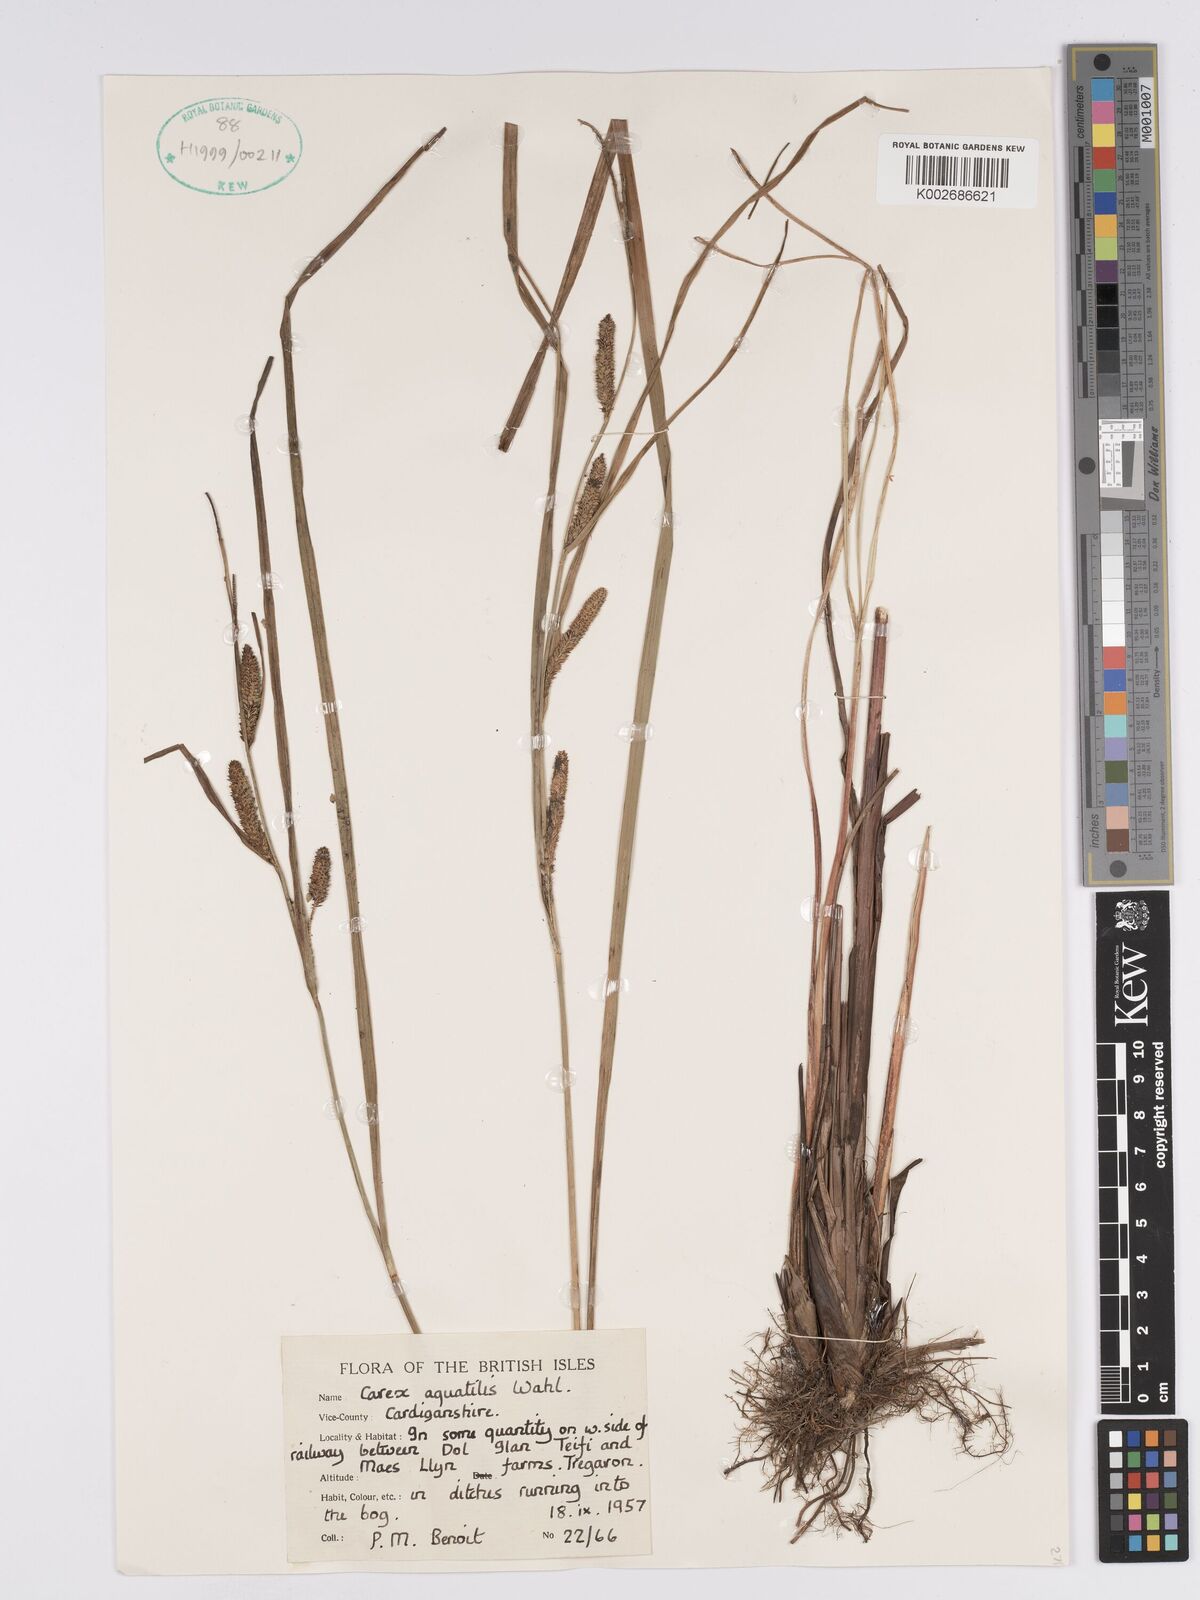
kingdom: Plantae
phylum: Tracheophyta
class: Liliopsida
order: Poales
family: Cyperaceae
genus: Carex
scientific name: Carex aquatilis
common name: Water sedge
